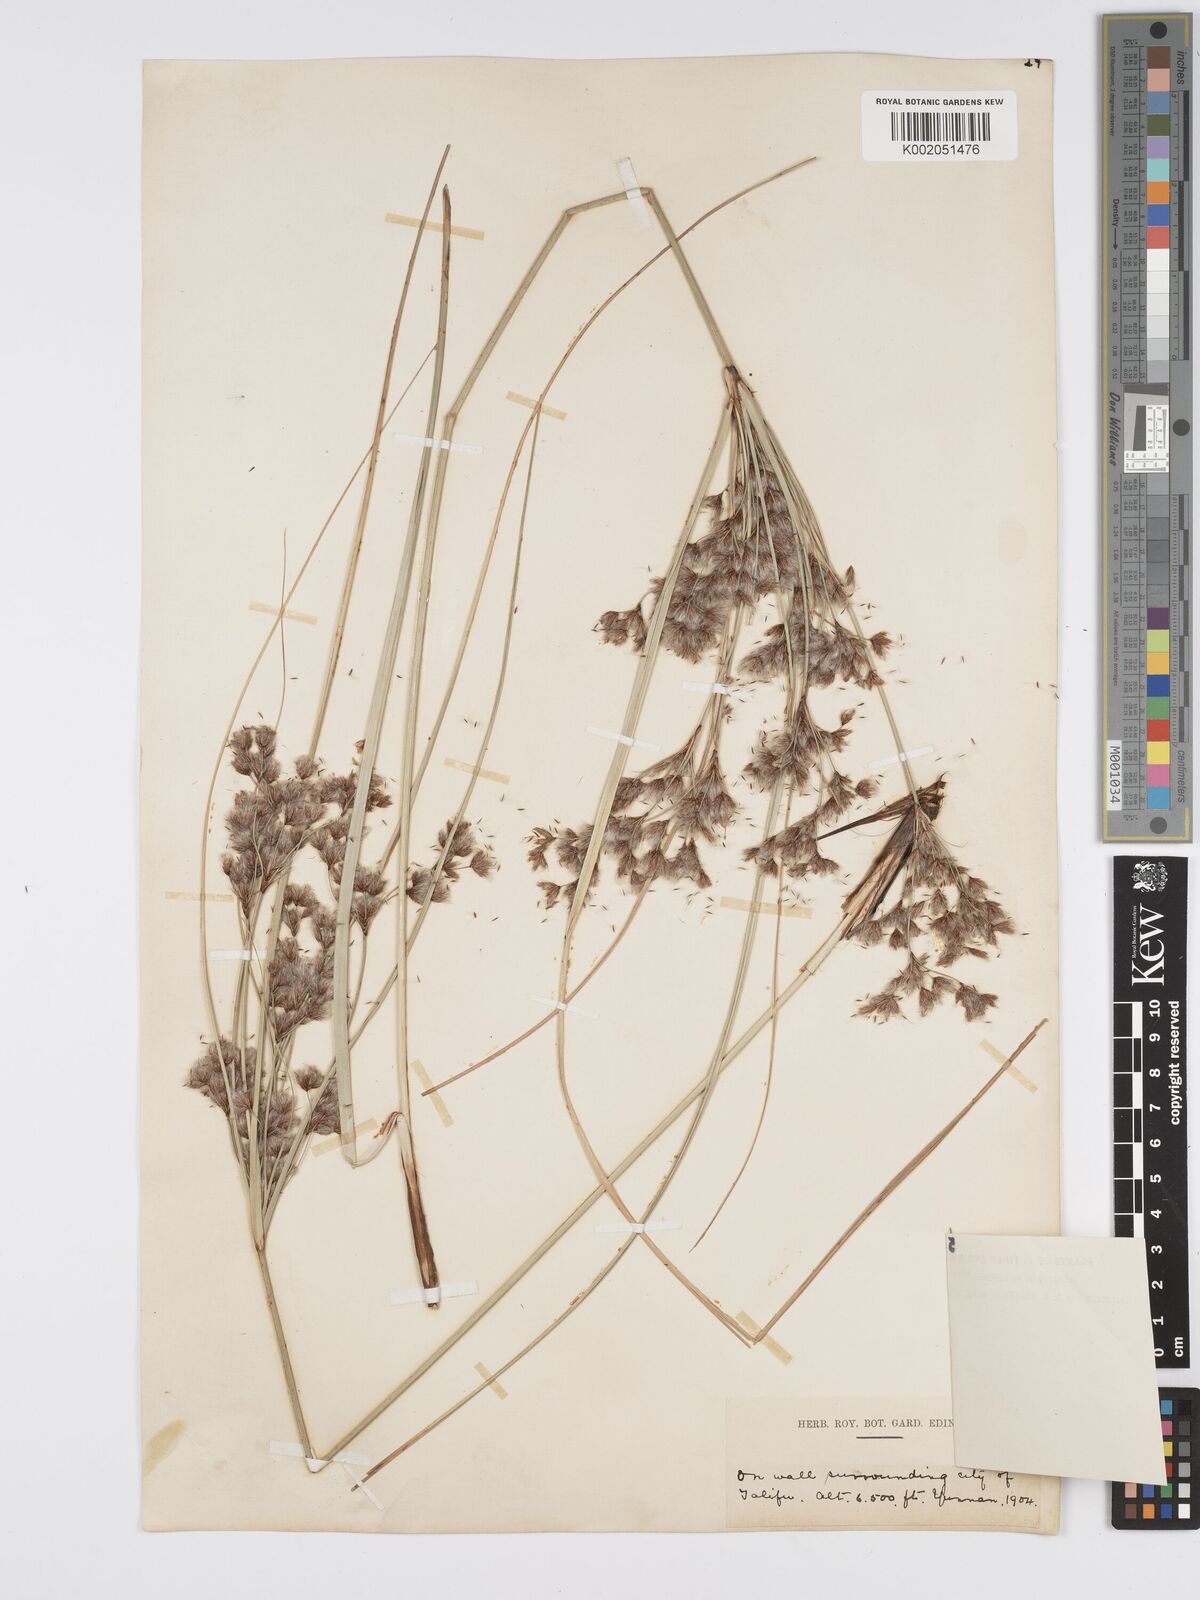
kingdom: Plantae
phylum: Tracheophyta
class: Liliopsida
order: Poales
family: Cyperaceae
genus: Erioscirpus
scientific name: Erioscirpus comosus
